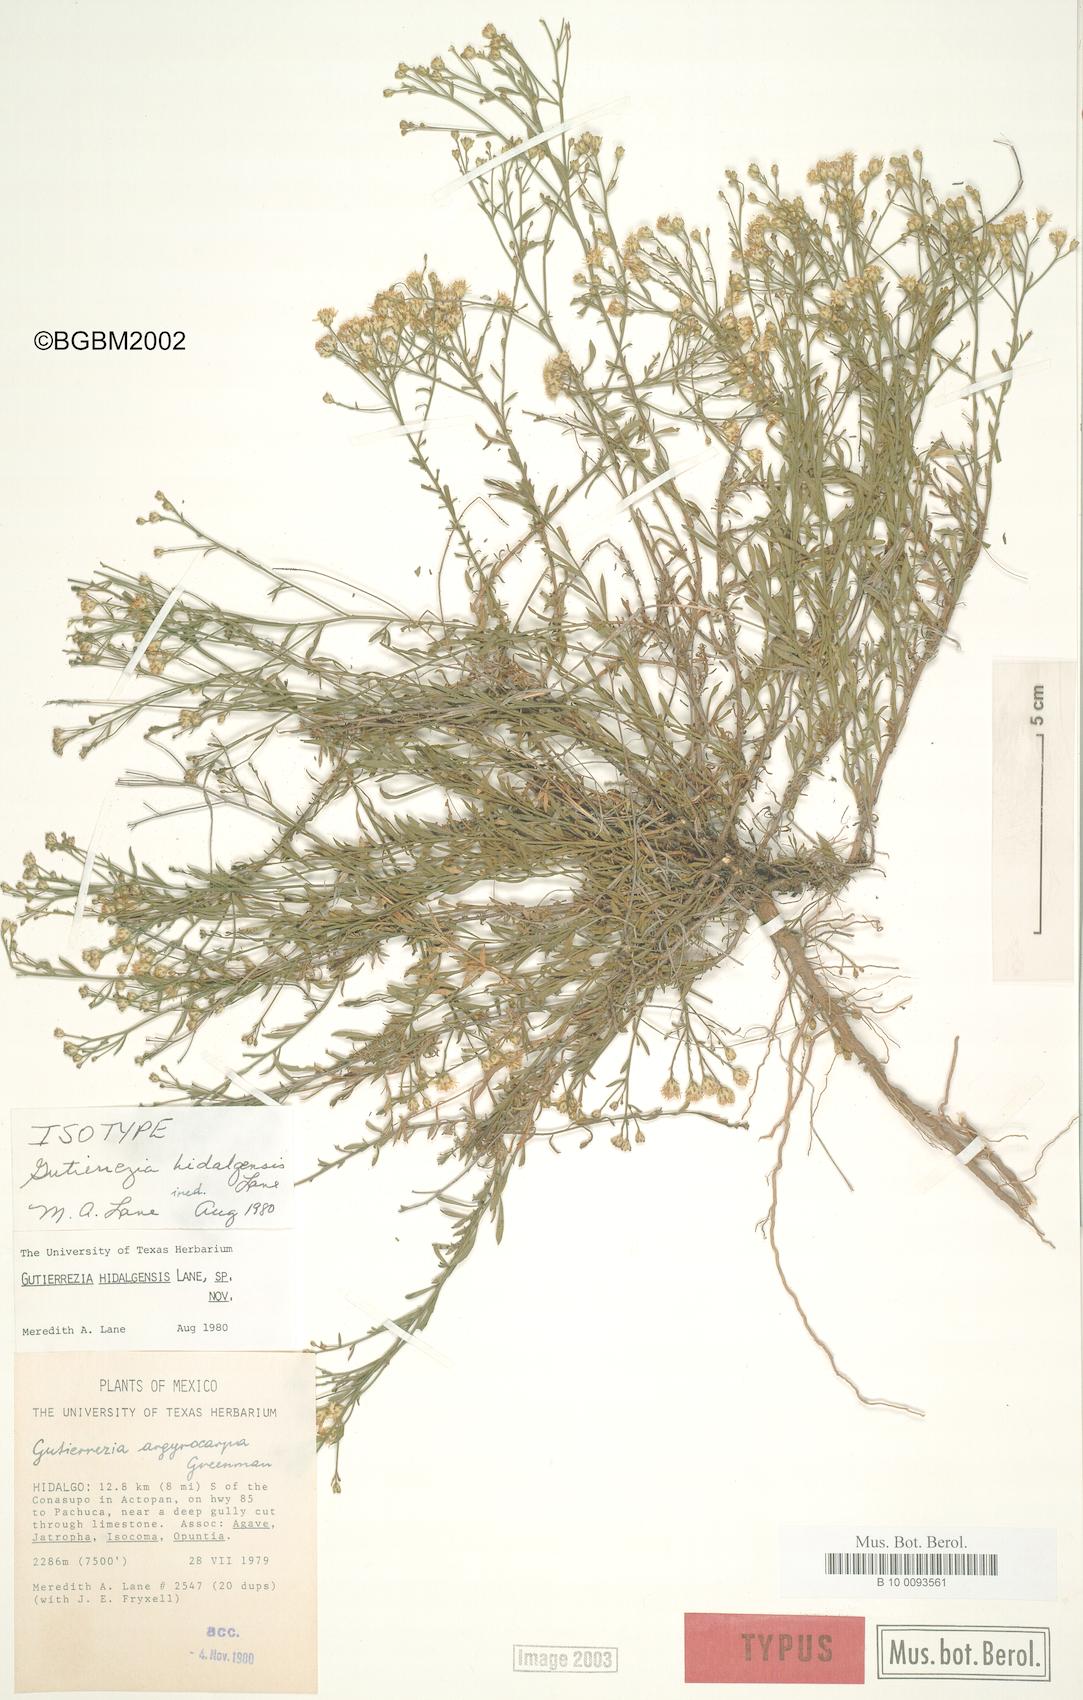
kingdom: Plantae
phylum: Tracheophyta
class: Magnoliopsida
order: Asterales
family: Asteraceae
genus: Gutierrezia
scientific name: Gutierrezia hidalgensis
